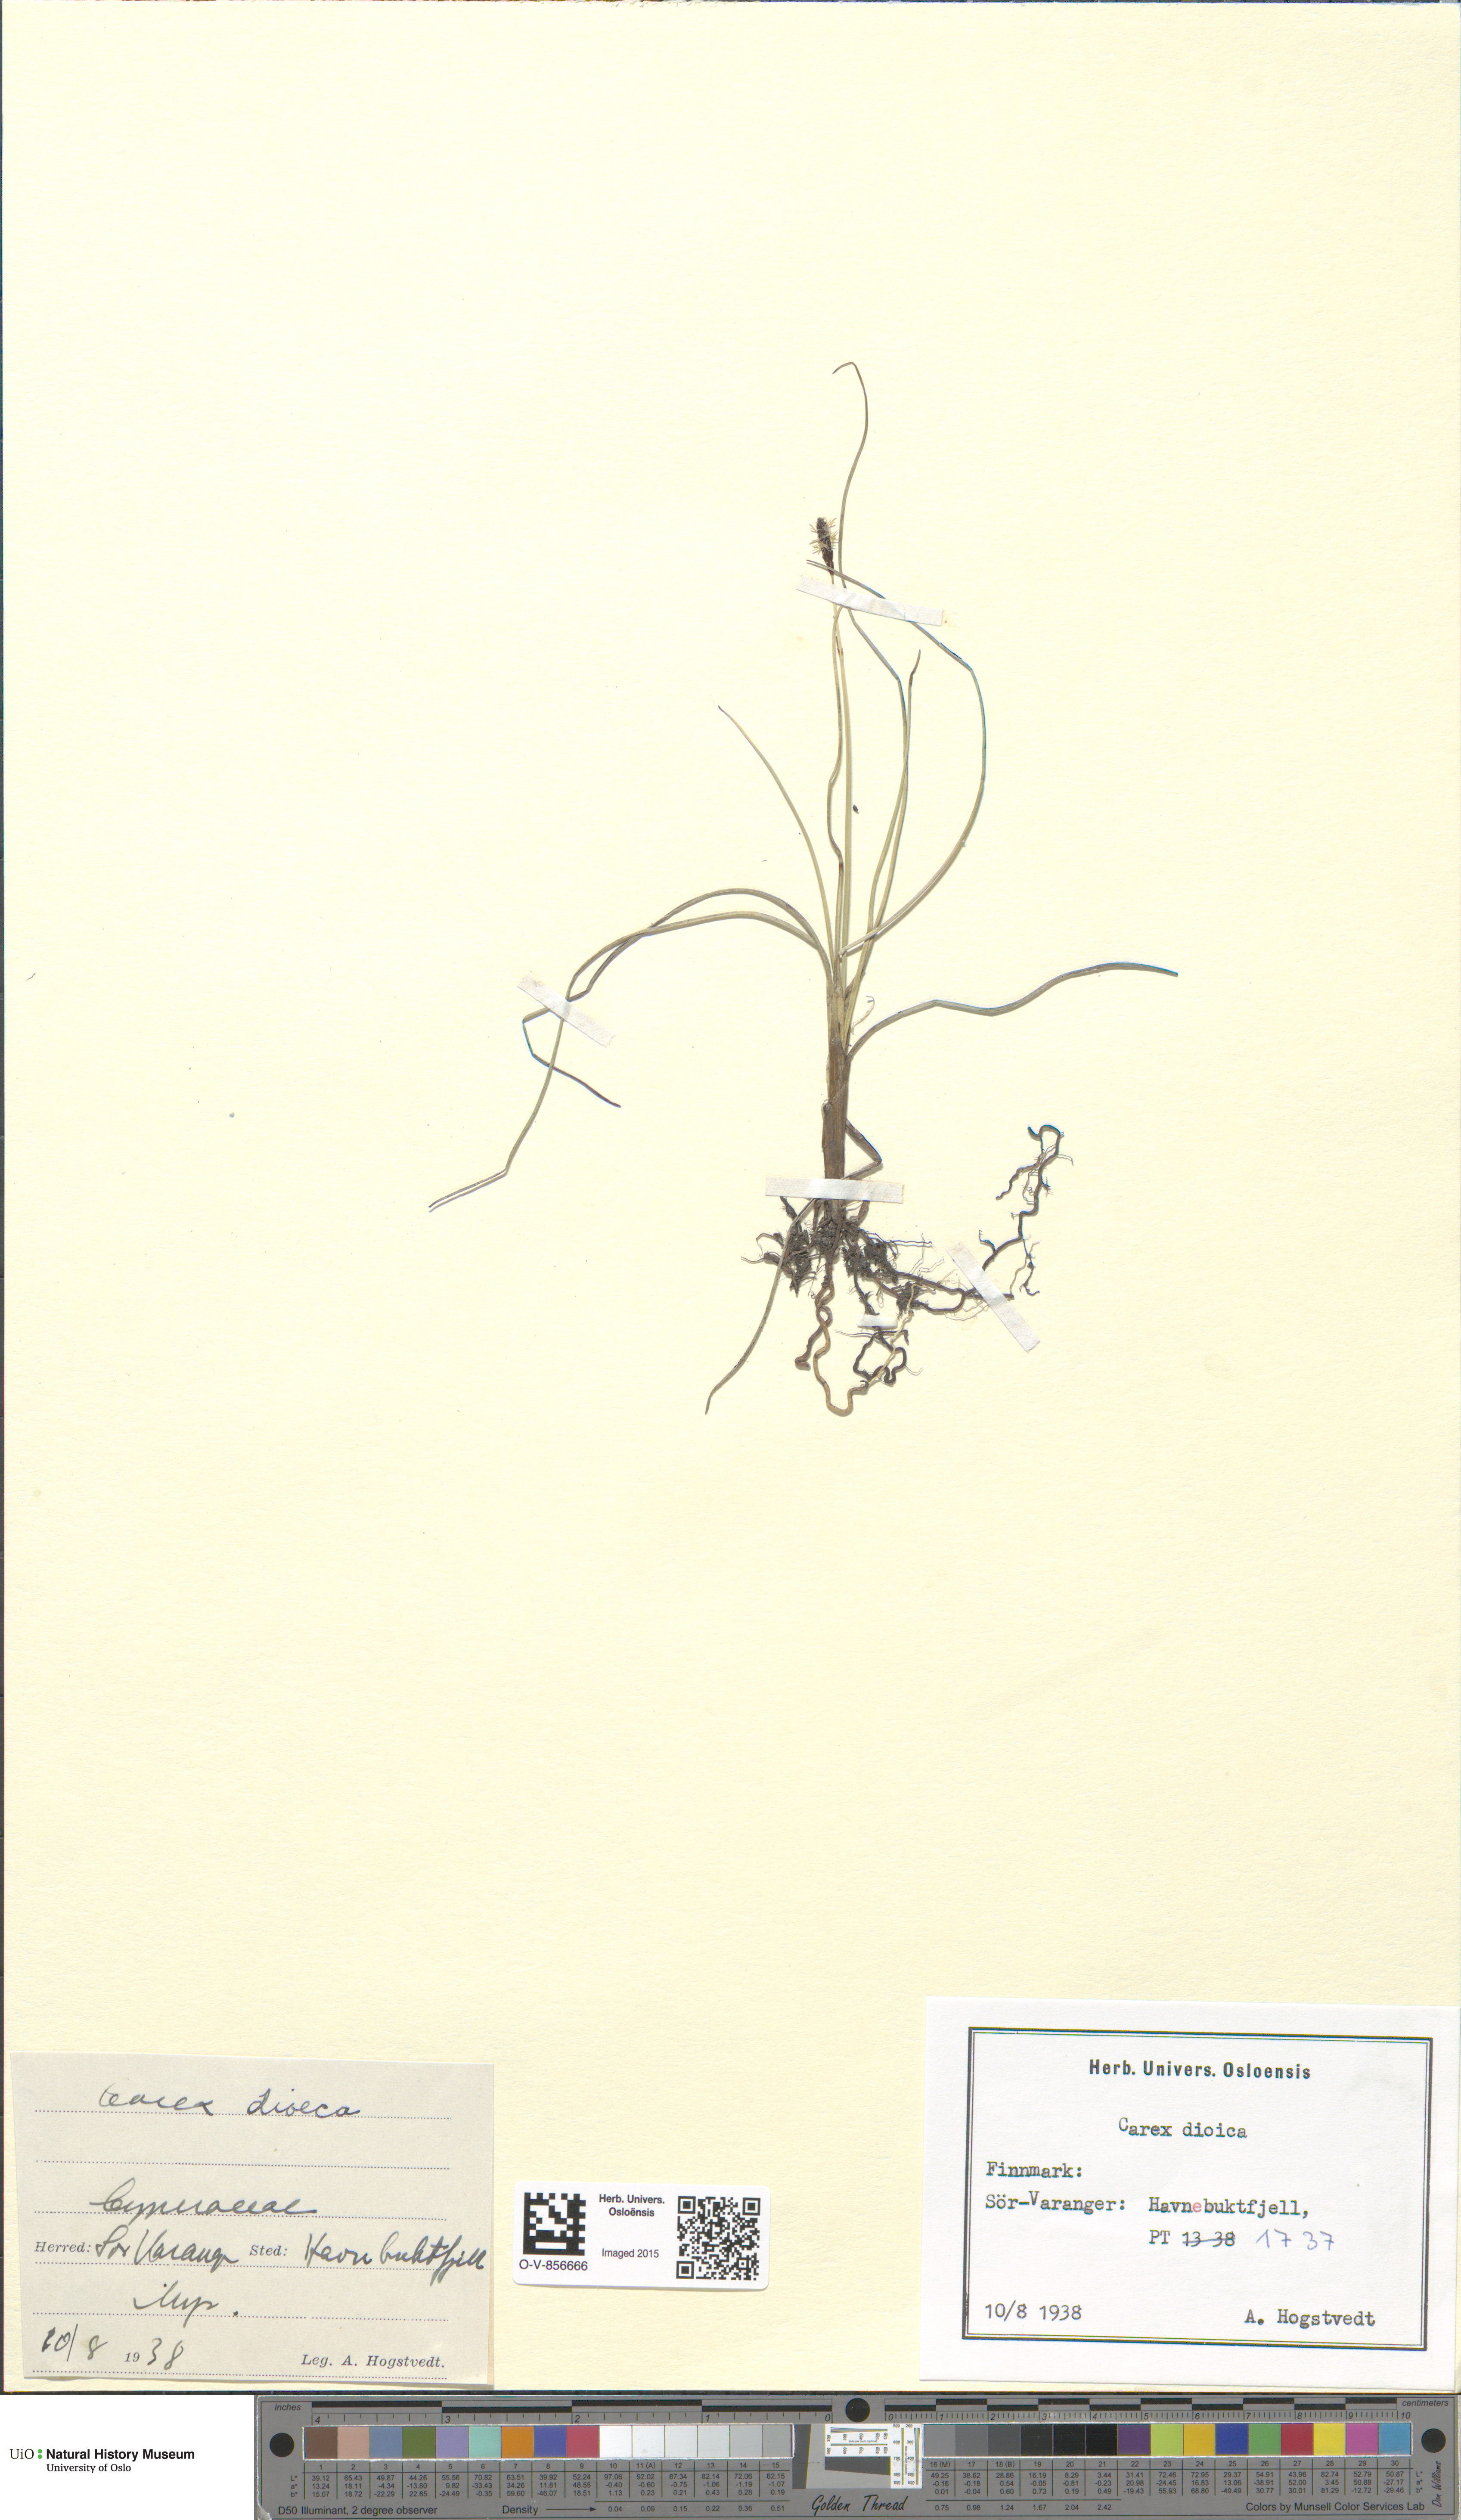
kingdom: Plantae
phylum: Tracheophyta
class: Liliopsida
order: Poales
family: Cyperaceae
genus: Carex
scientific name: Carex dioica
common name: Dioecious sedge
